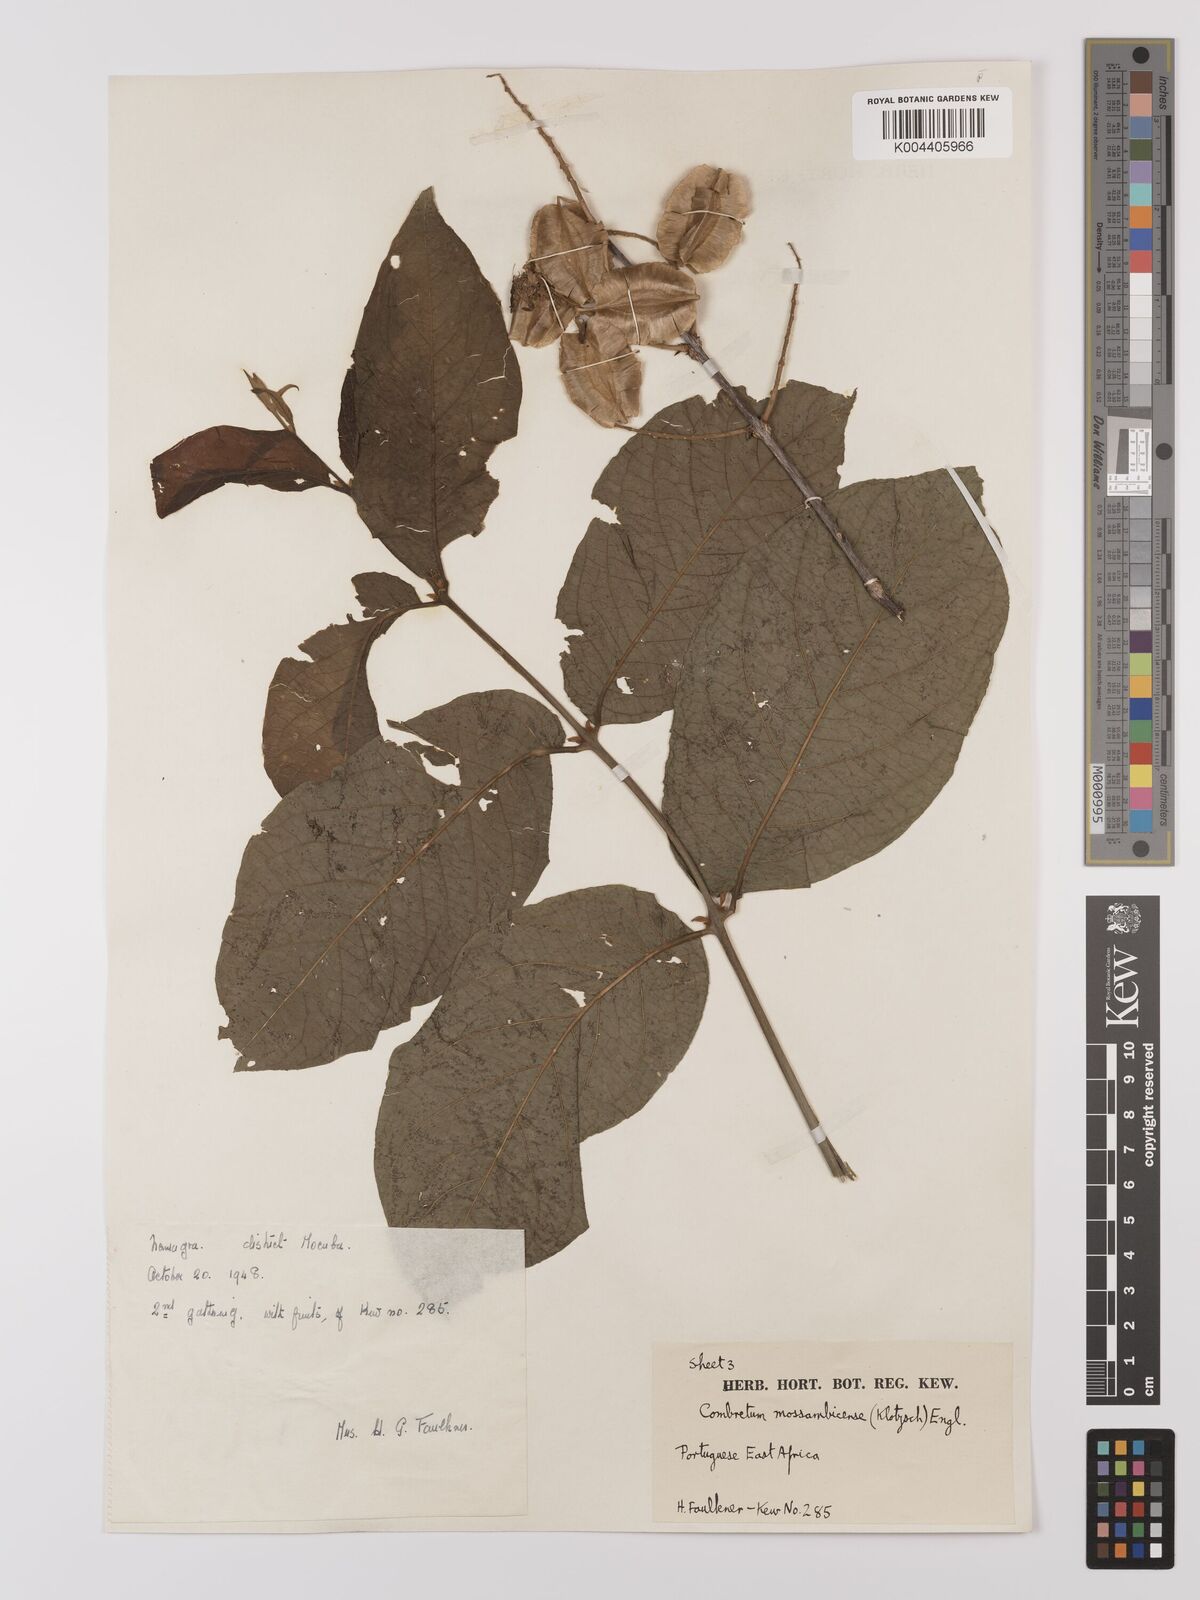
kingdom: Plantae
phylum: Tracheophyta
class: Magnoliopsida
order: Myrtales
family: Combretaceae
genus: Combretum
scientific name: Combretum mossambicense
